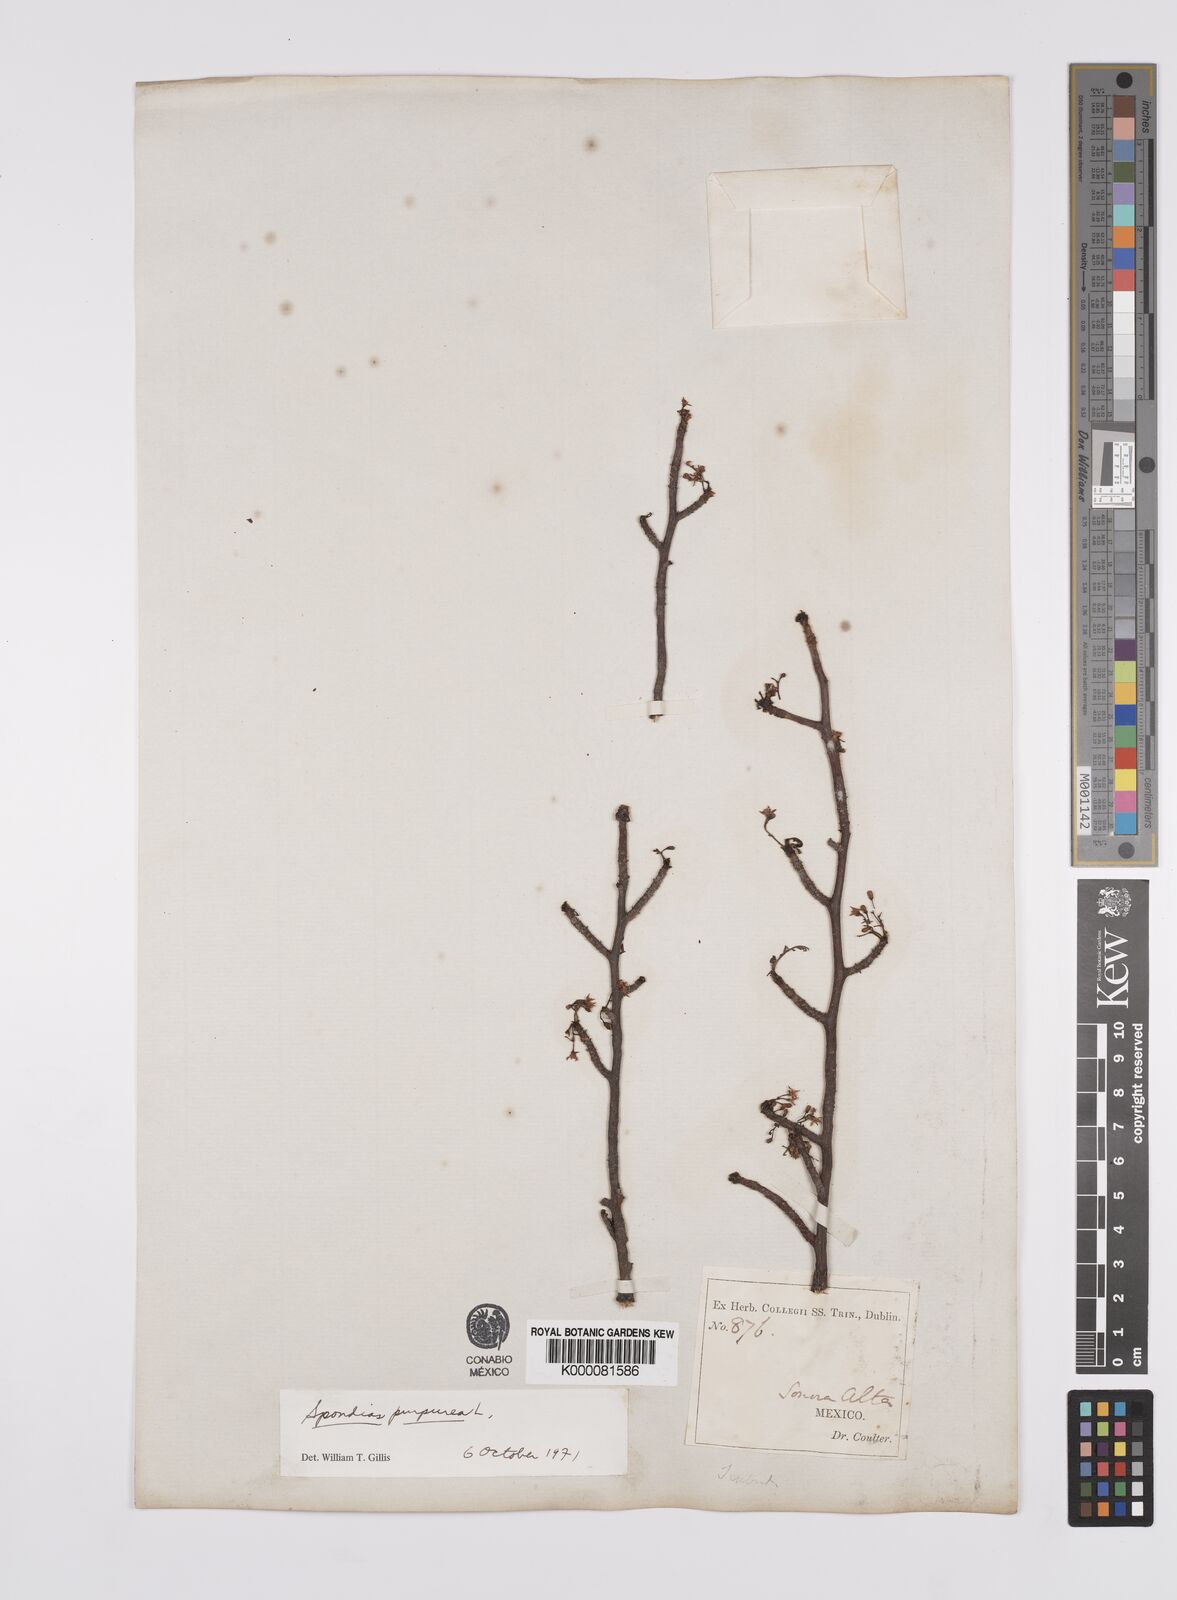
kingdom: Plantae
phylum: Tracheophyta
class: Magnoliopsida
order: Sapindales
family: Anacardiaceae
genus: Spondias
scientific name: Spondias purpurea
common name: Purple mombin
